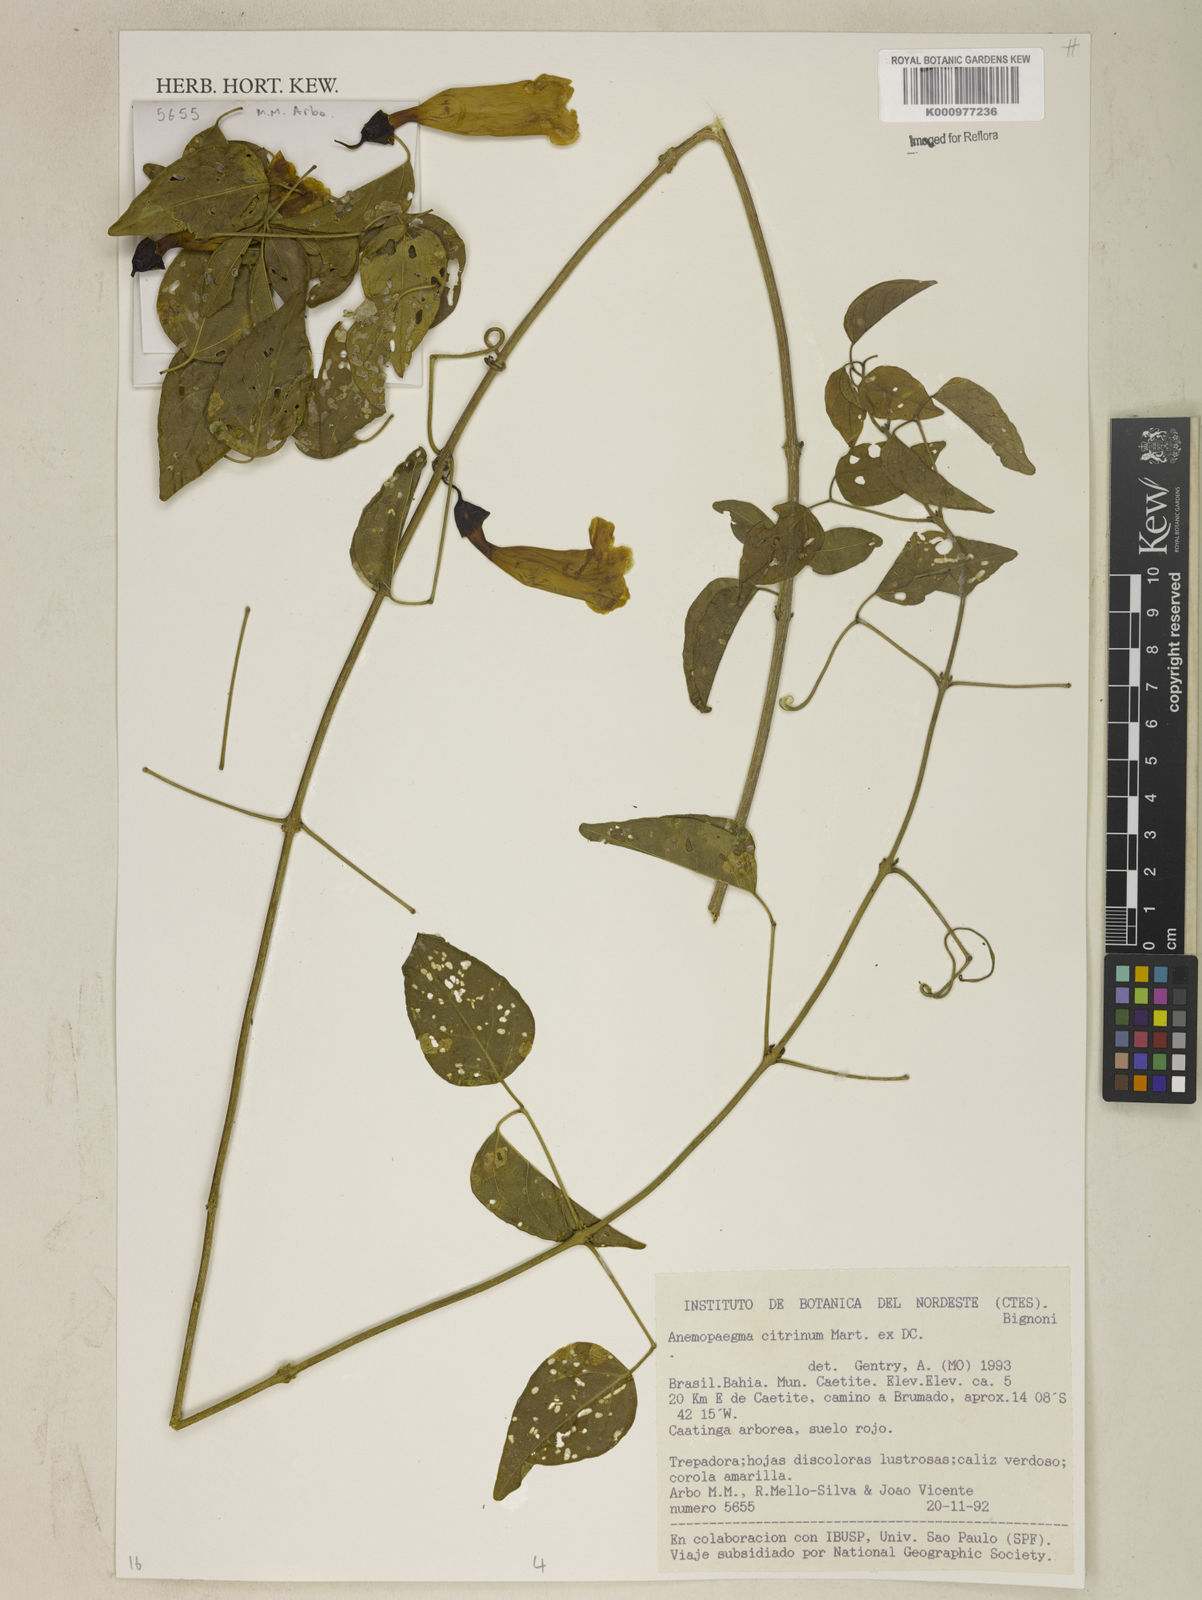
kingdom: Plantae
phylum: Tracheophyta
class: Magnoliopsida
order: Lamiales
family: Bignoniaceae
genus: Anemopaegma
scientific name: Anemopaegma citrinum
